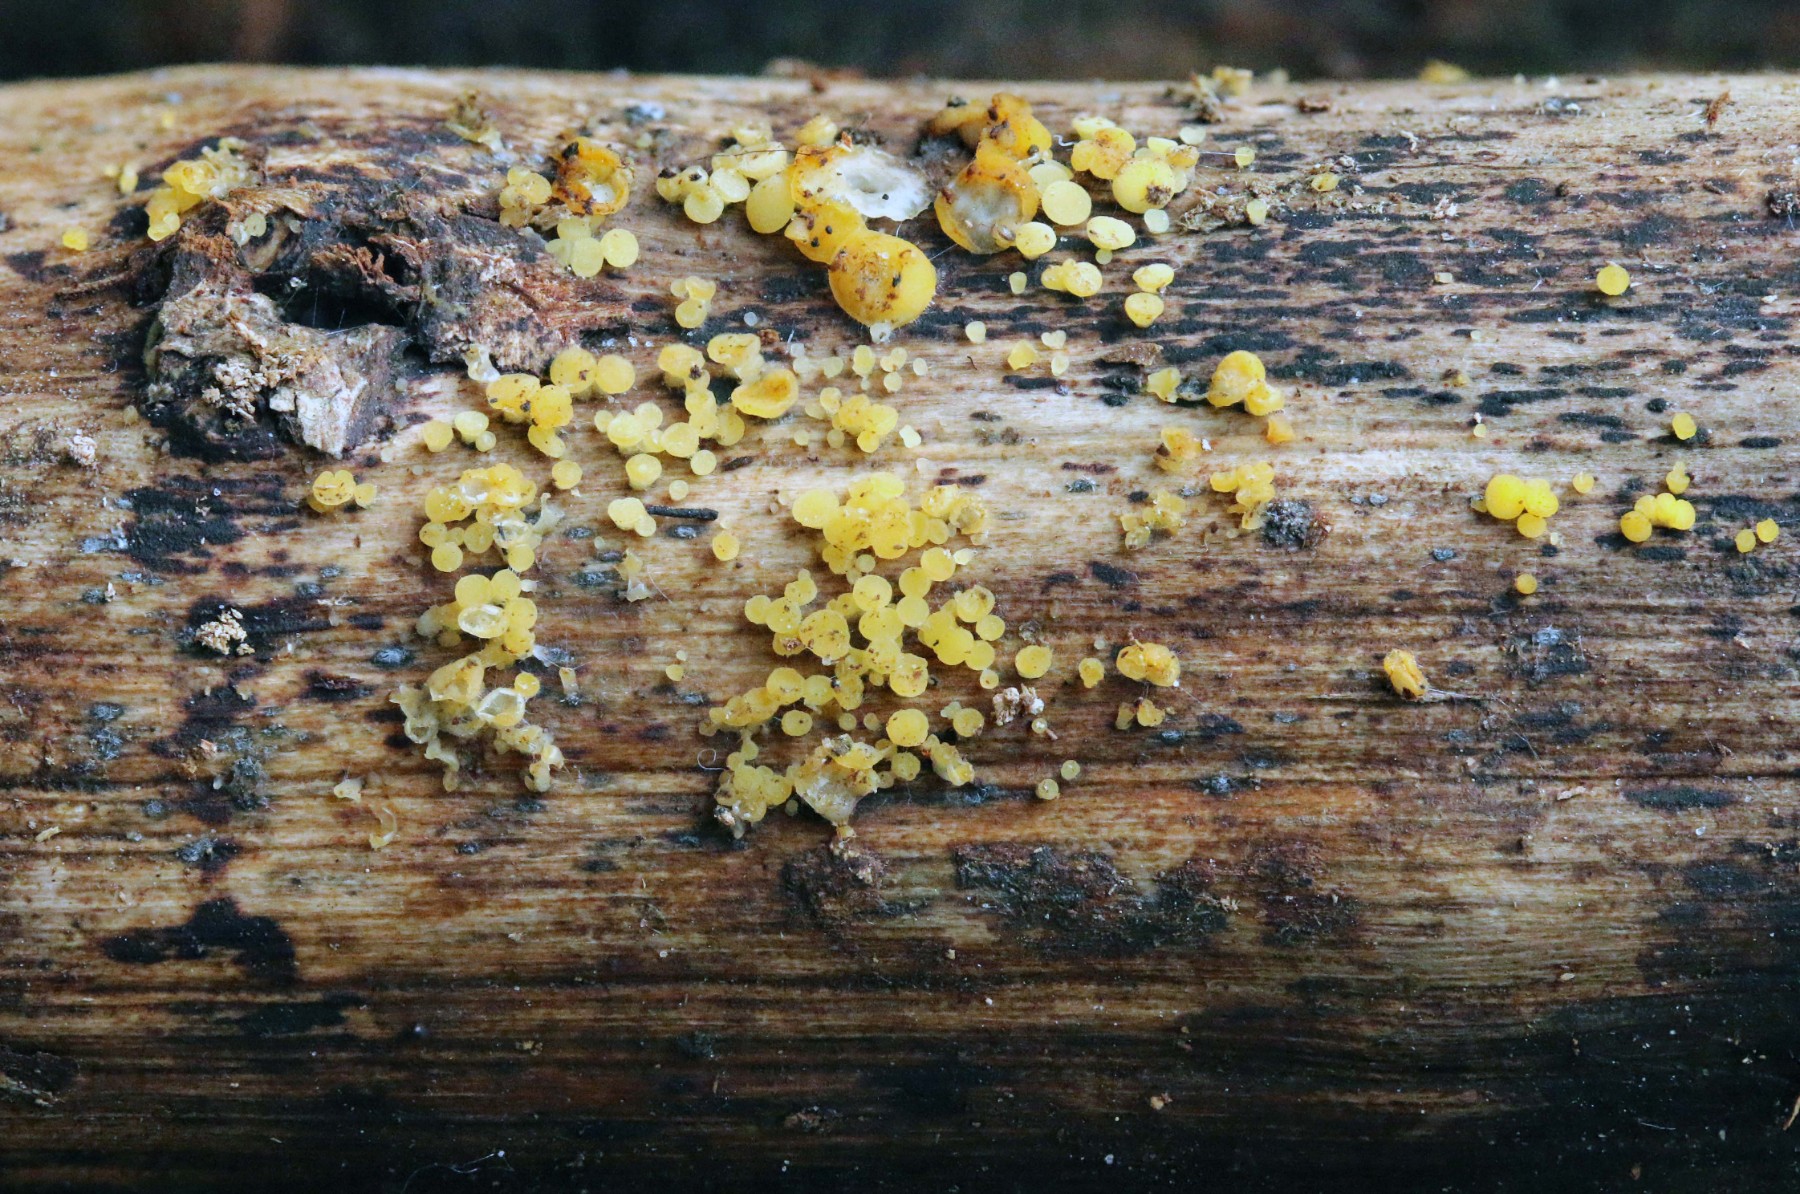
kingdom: Fungi
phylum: Ascomycota
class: Leotiomycetes
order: Helotiales
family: Pezizellaceae
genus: Calycina
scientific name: Calycina citrina
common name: almindelig gulskive
